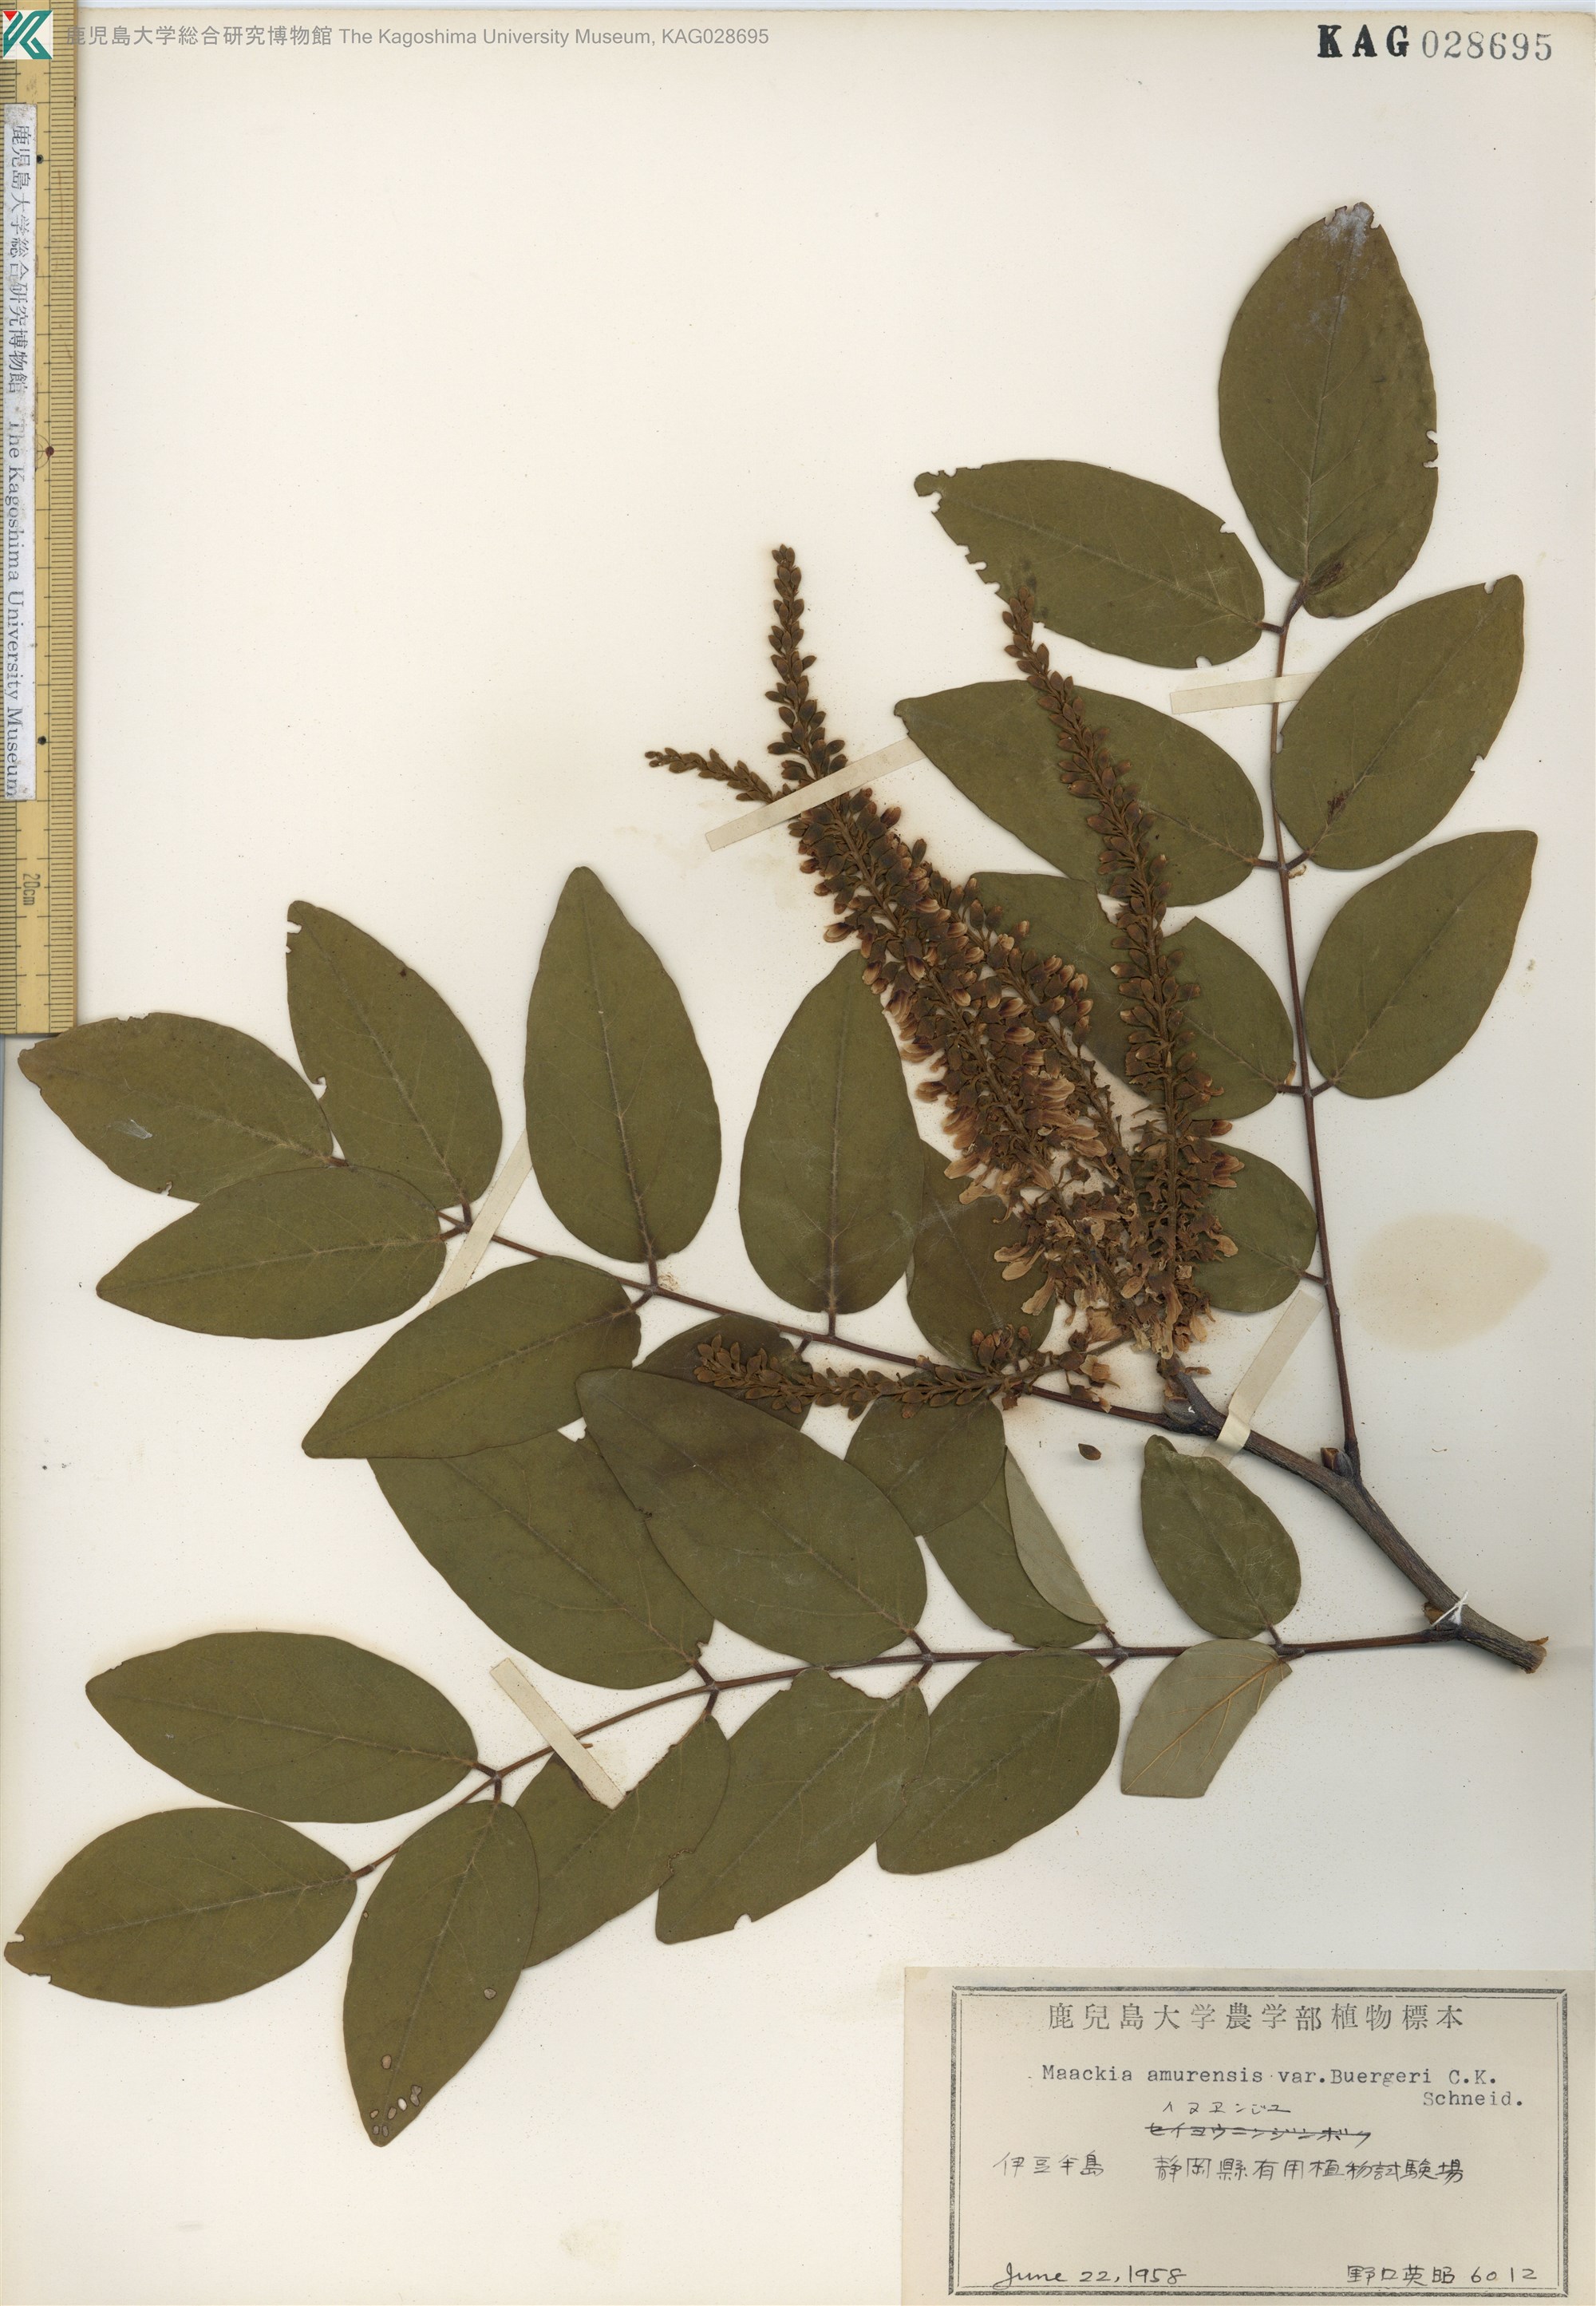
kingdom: Plantae
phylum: Tracheophyta
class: Magnoliopsida
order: Fabales
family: Fabaceae
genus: Maackia
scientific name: Maackia amurensis
